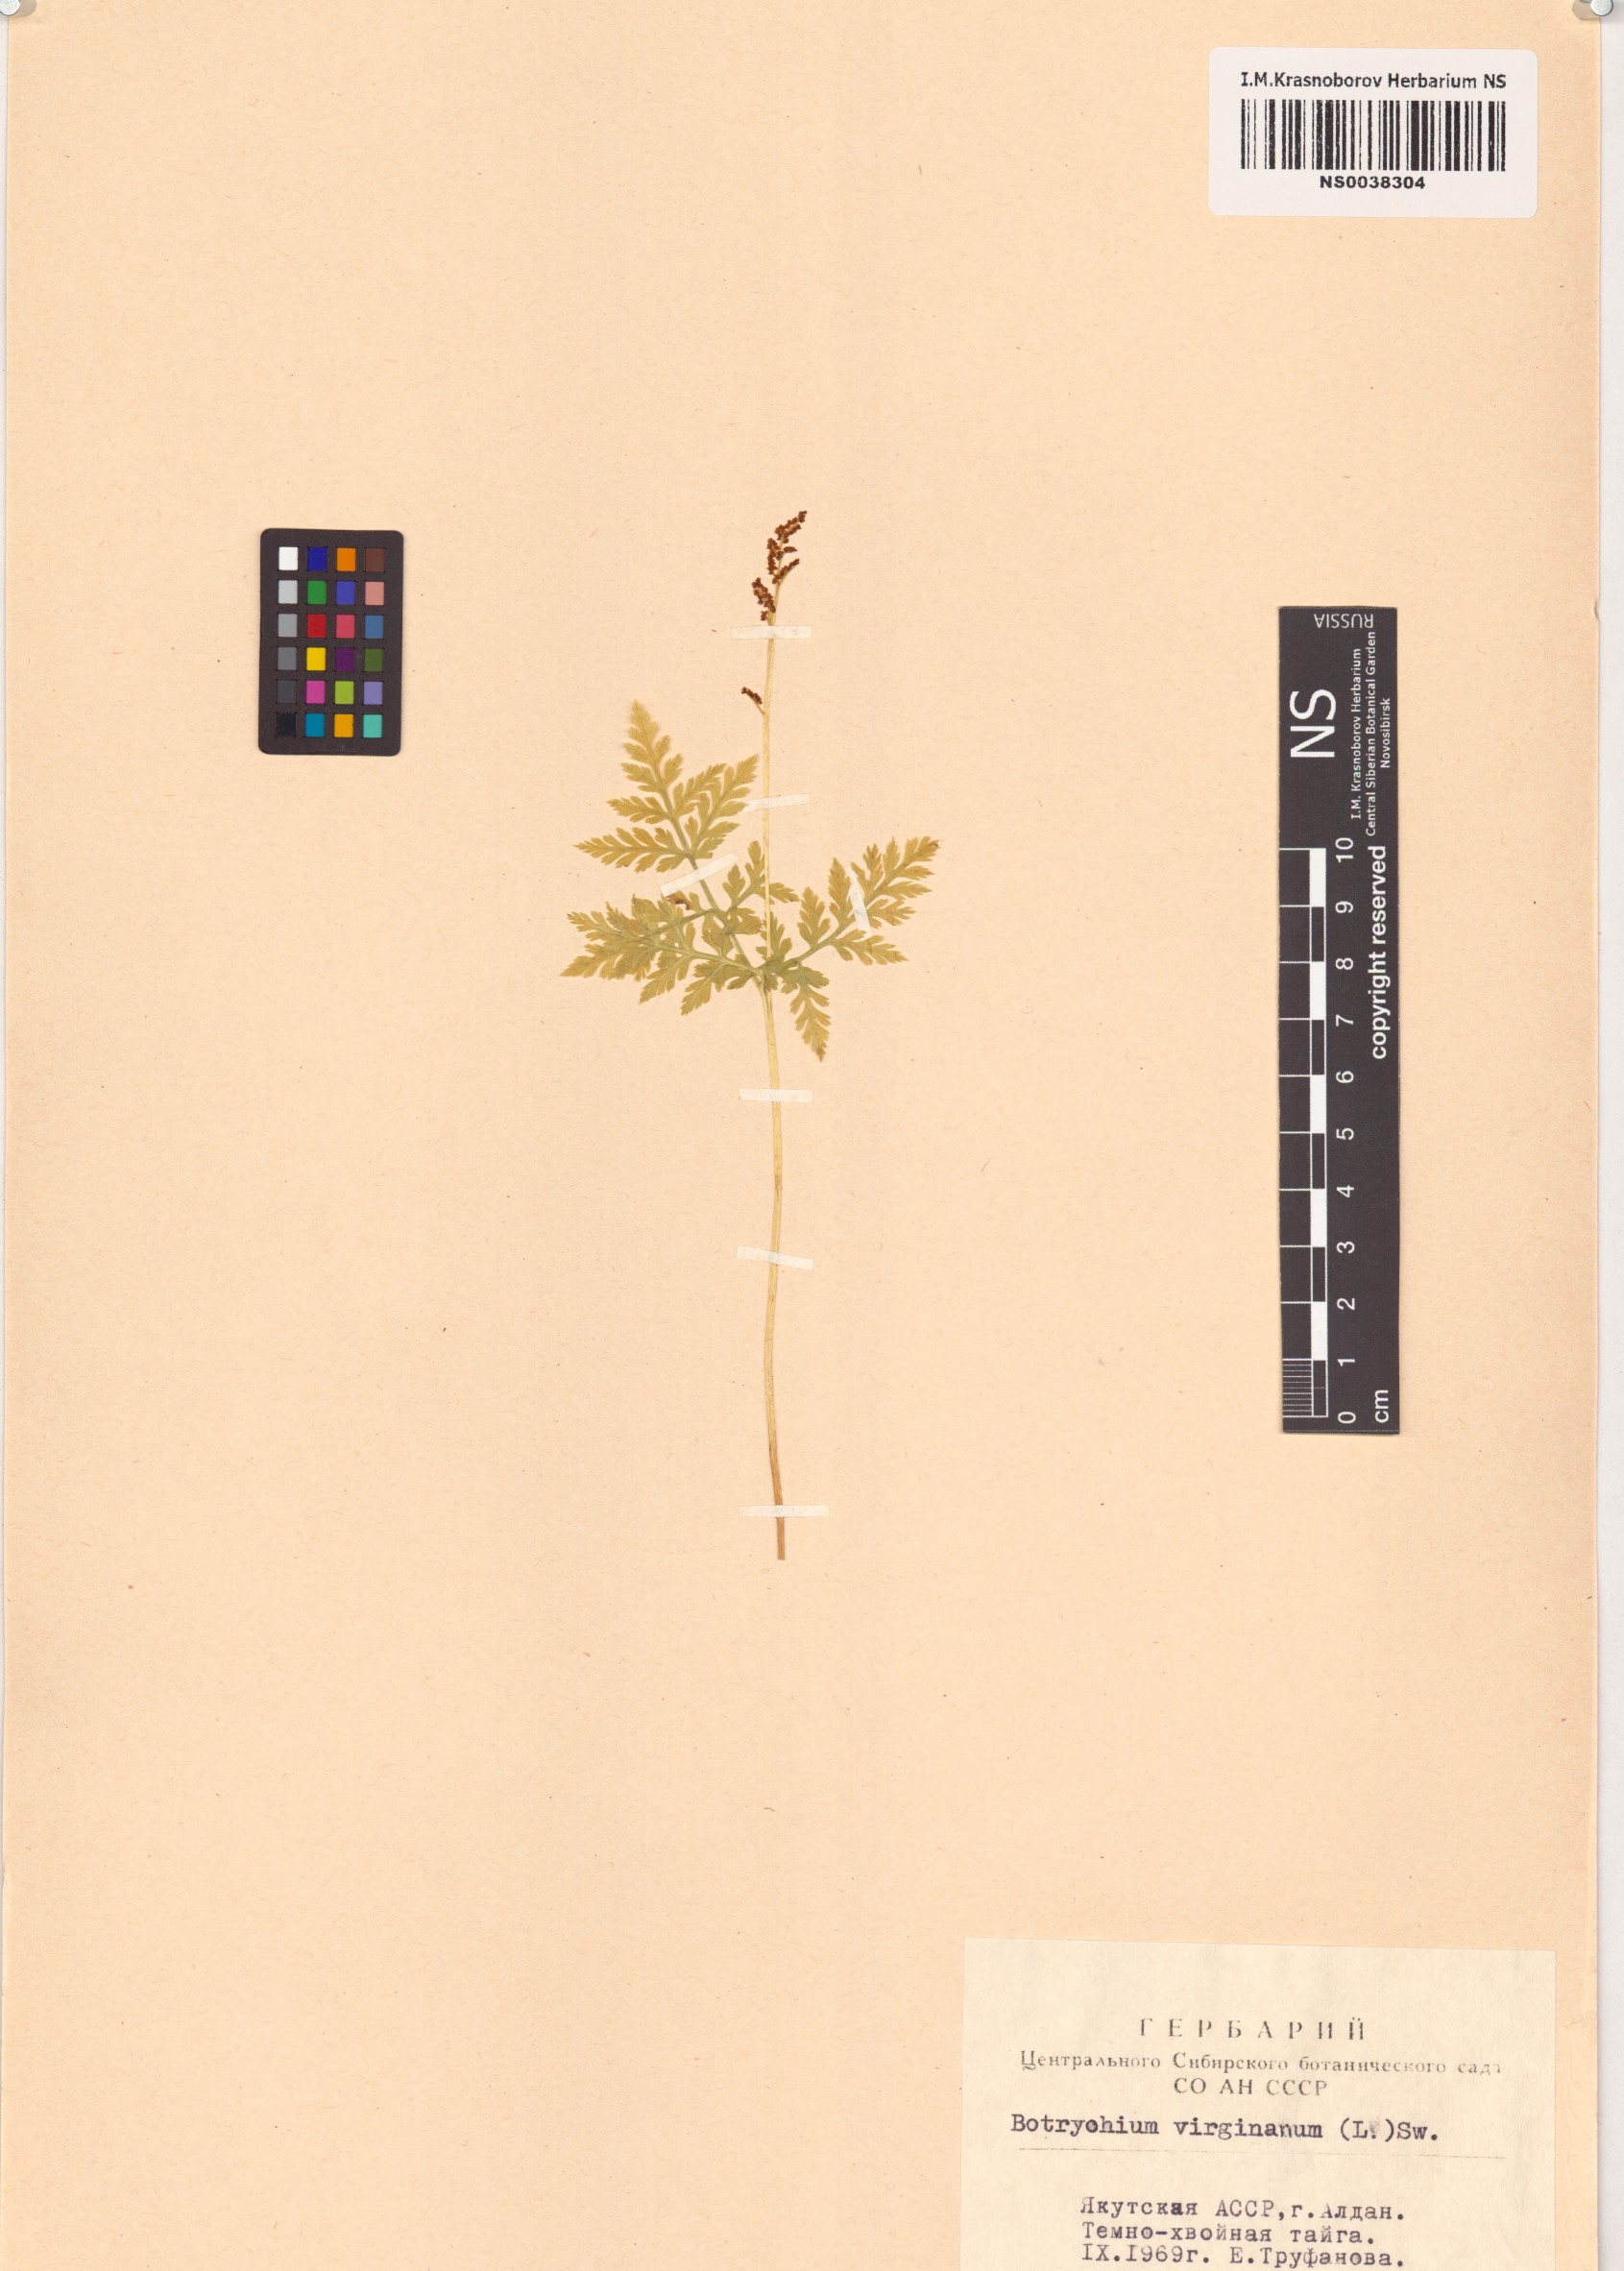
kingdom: Plantae
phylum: Tracheophyta
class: Polypodiopsida
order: Ophioglossales
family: Ophioglossaceae
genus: Botrypus
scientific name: Botrypus virginianus
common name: Common grapefern
